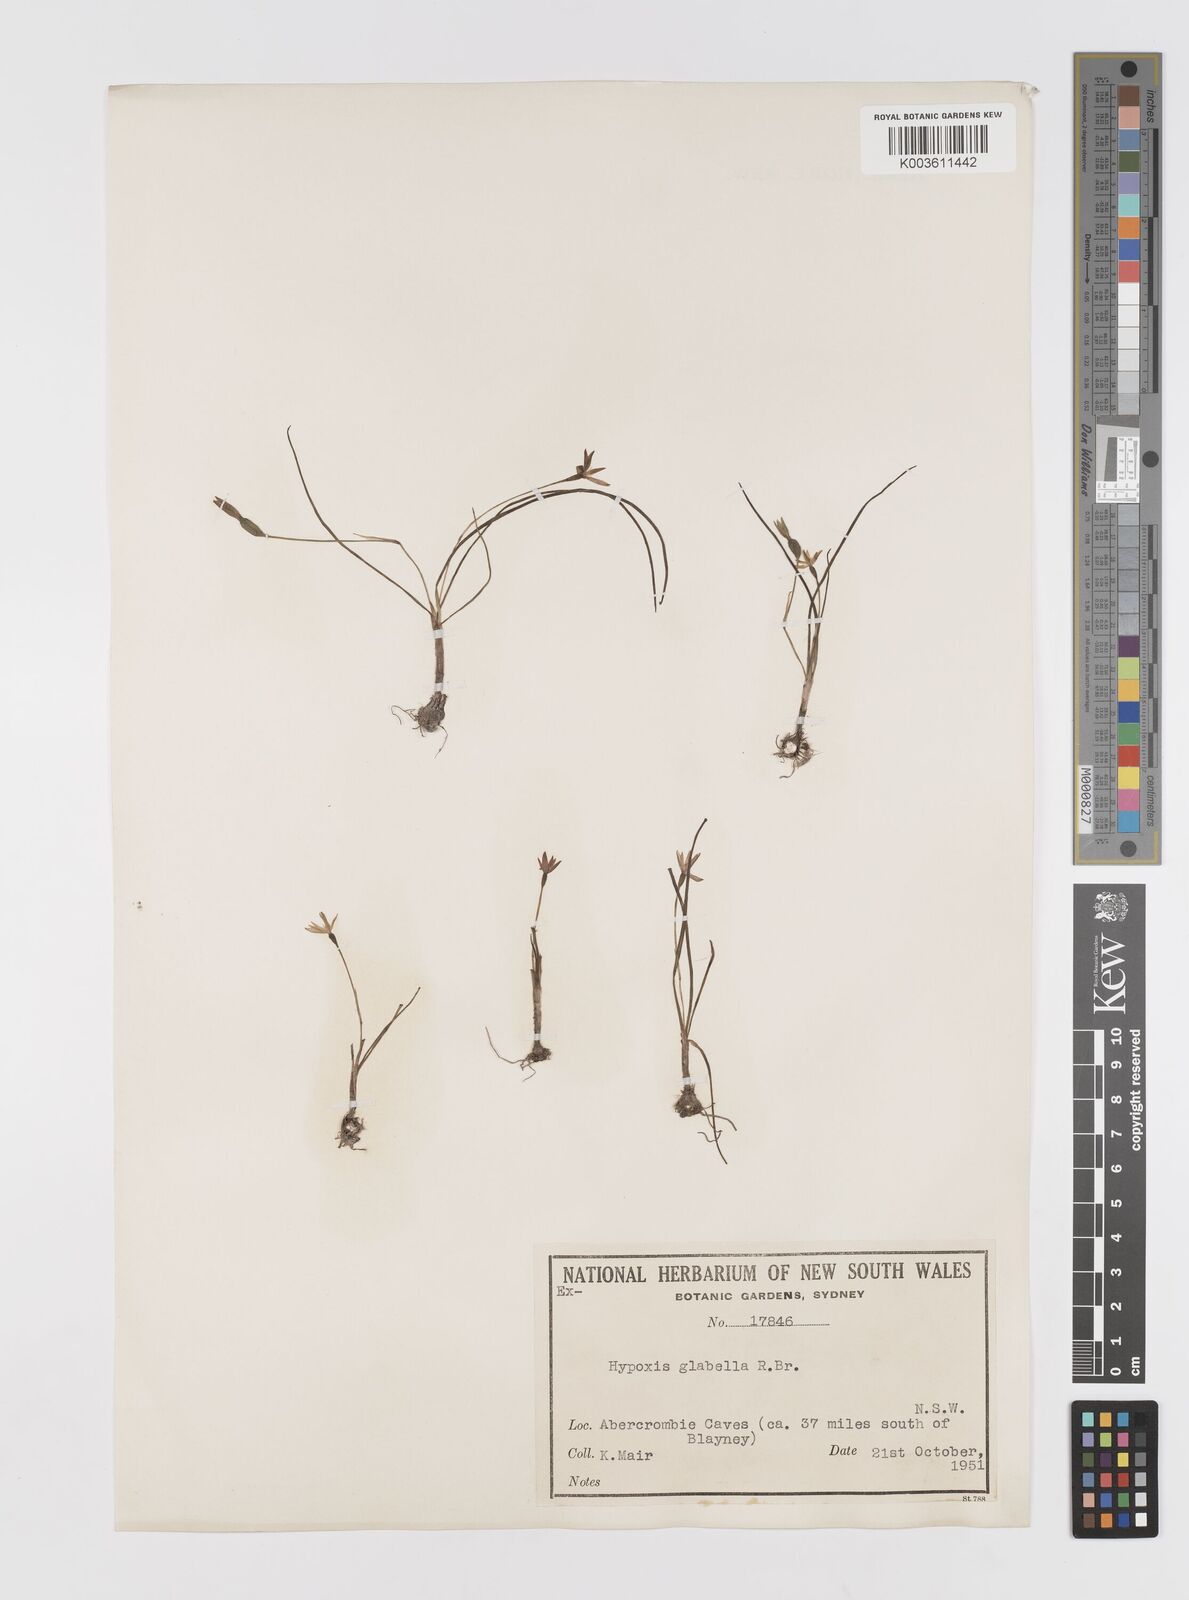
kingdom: Plantae
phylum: Tracheophyta
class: Liliopsida
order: Asparagales
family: Hypoxidaceae
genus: Pauridia
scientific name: Pauridia glabella
